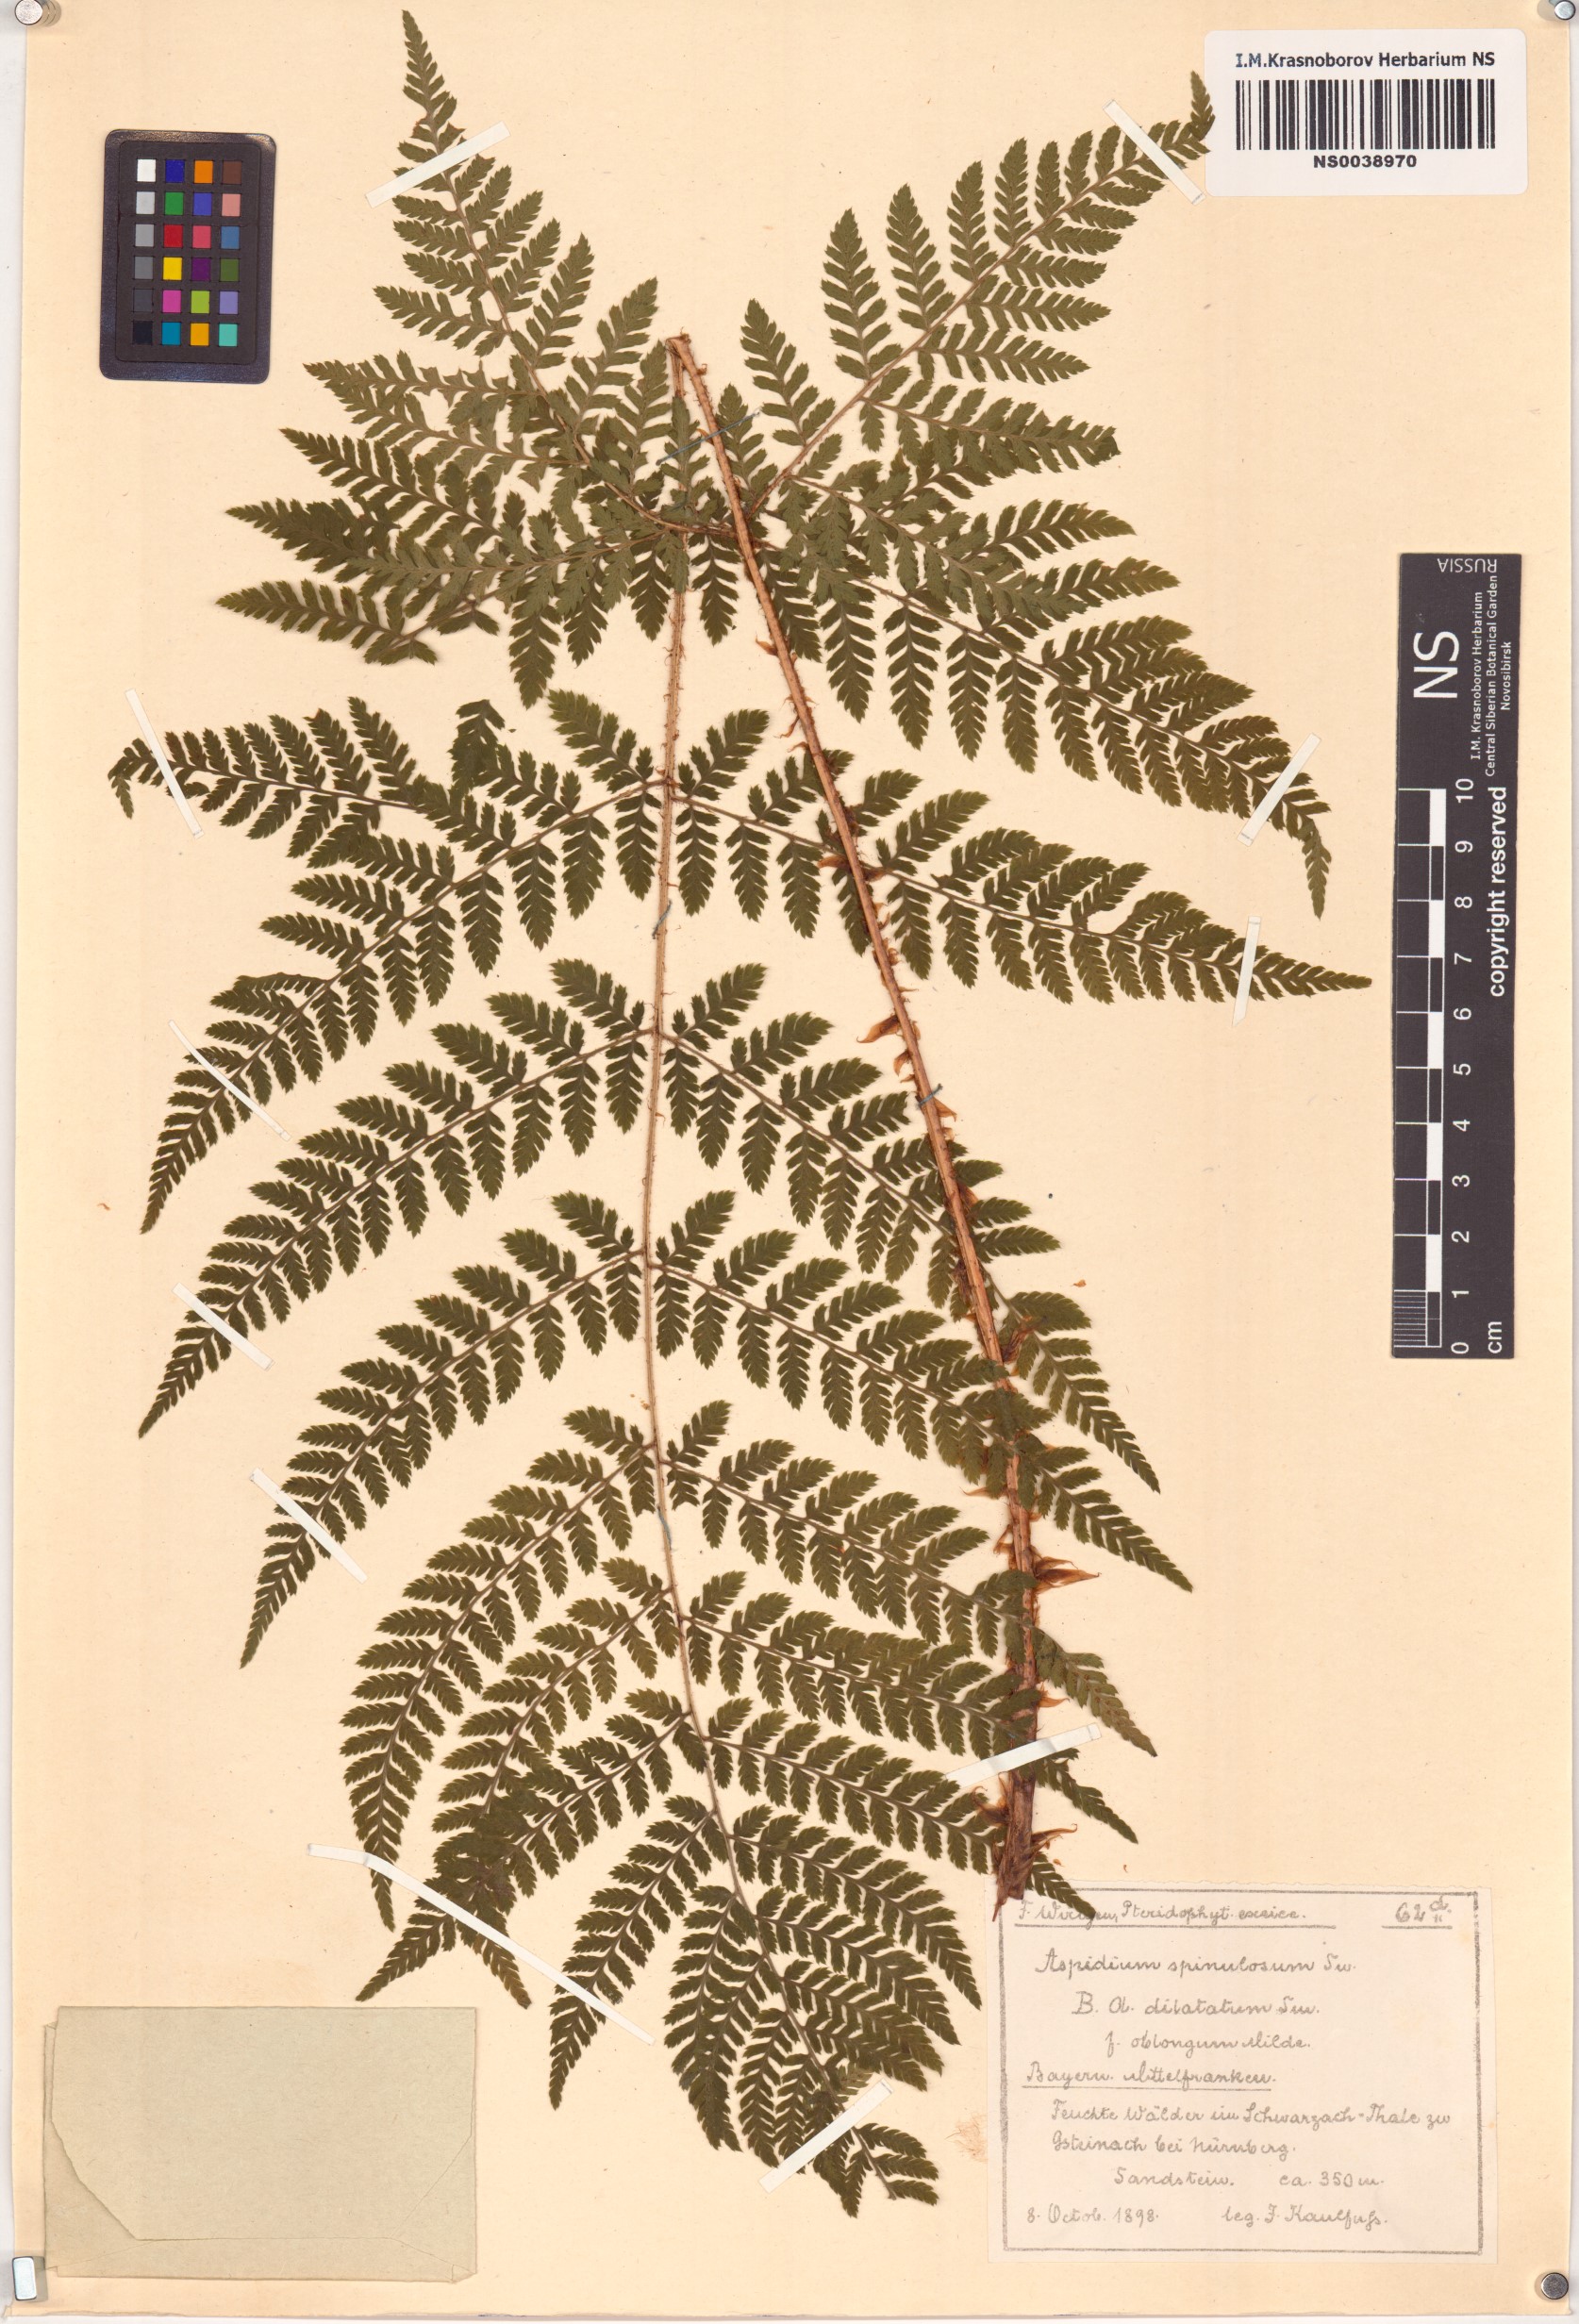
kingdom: Plantae
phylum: Tracheophyta
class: Polypodiopsida
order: Polypodiales
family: Dryopteridaceae
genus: Dryopteris
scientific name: Dryopteris carthusiana
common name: Narrow buckler-fern
